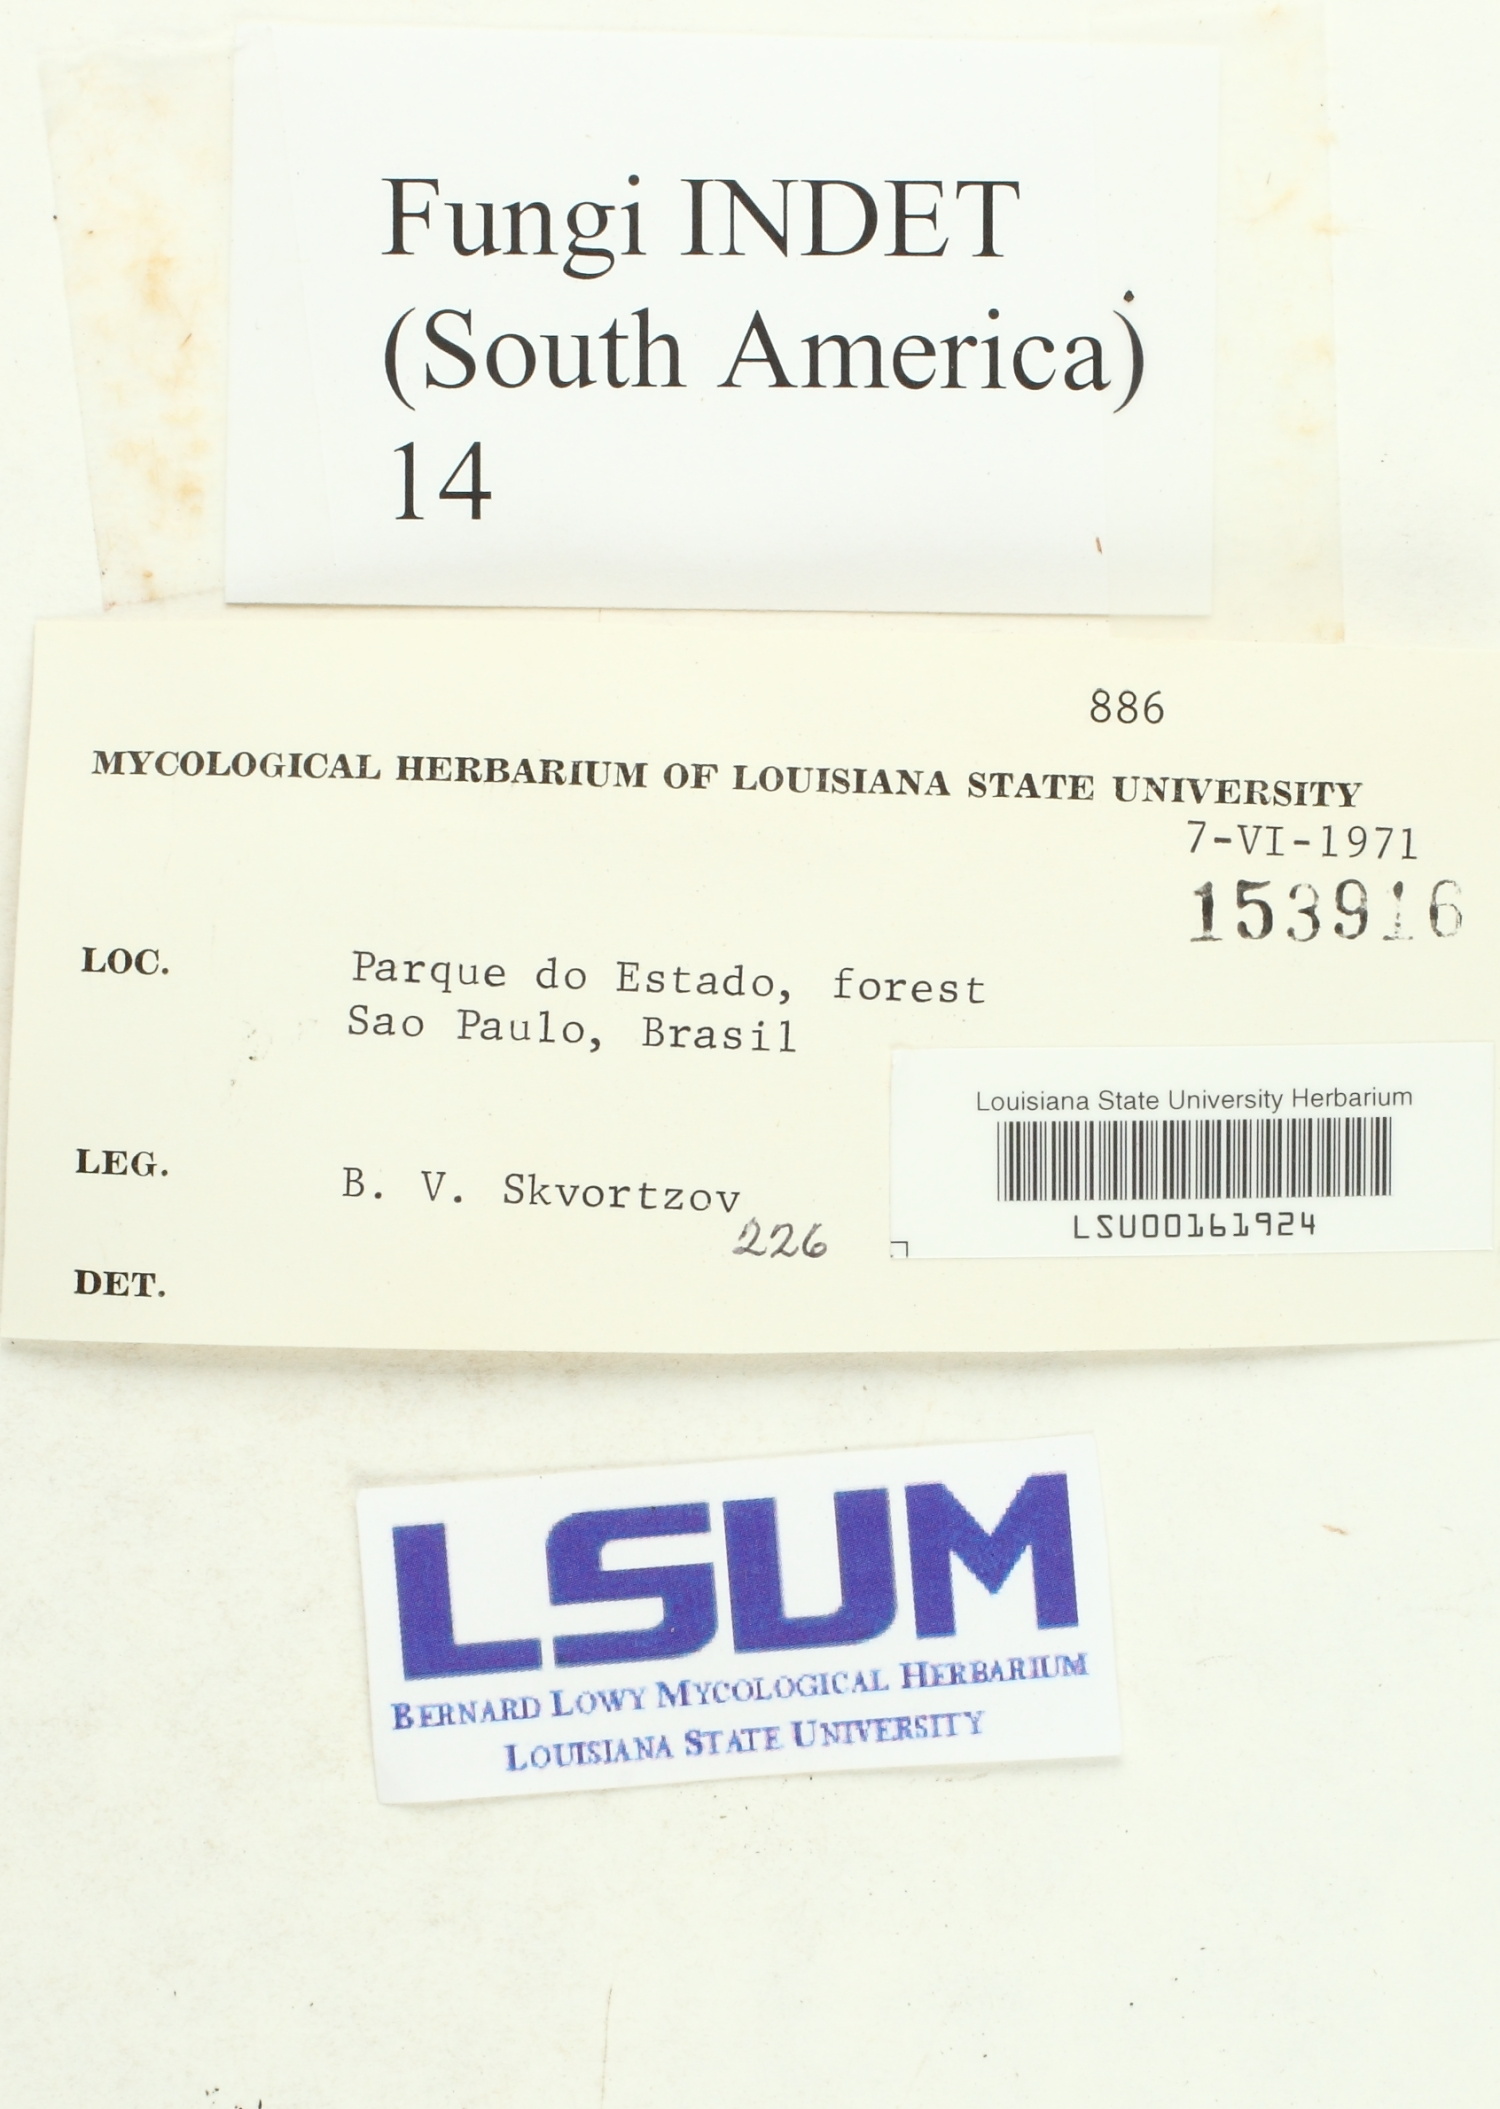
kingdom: Fungi
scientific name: Fungi
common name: Fungi
